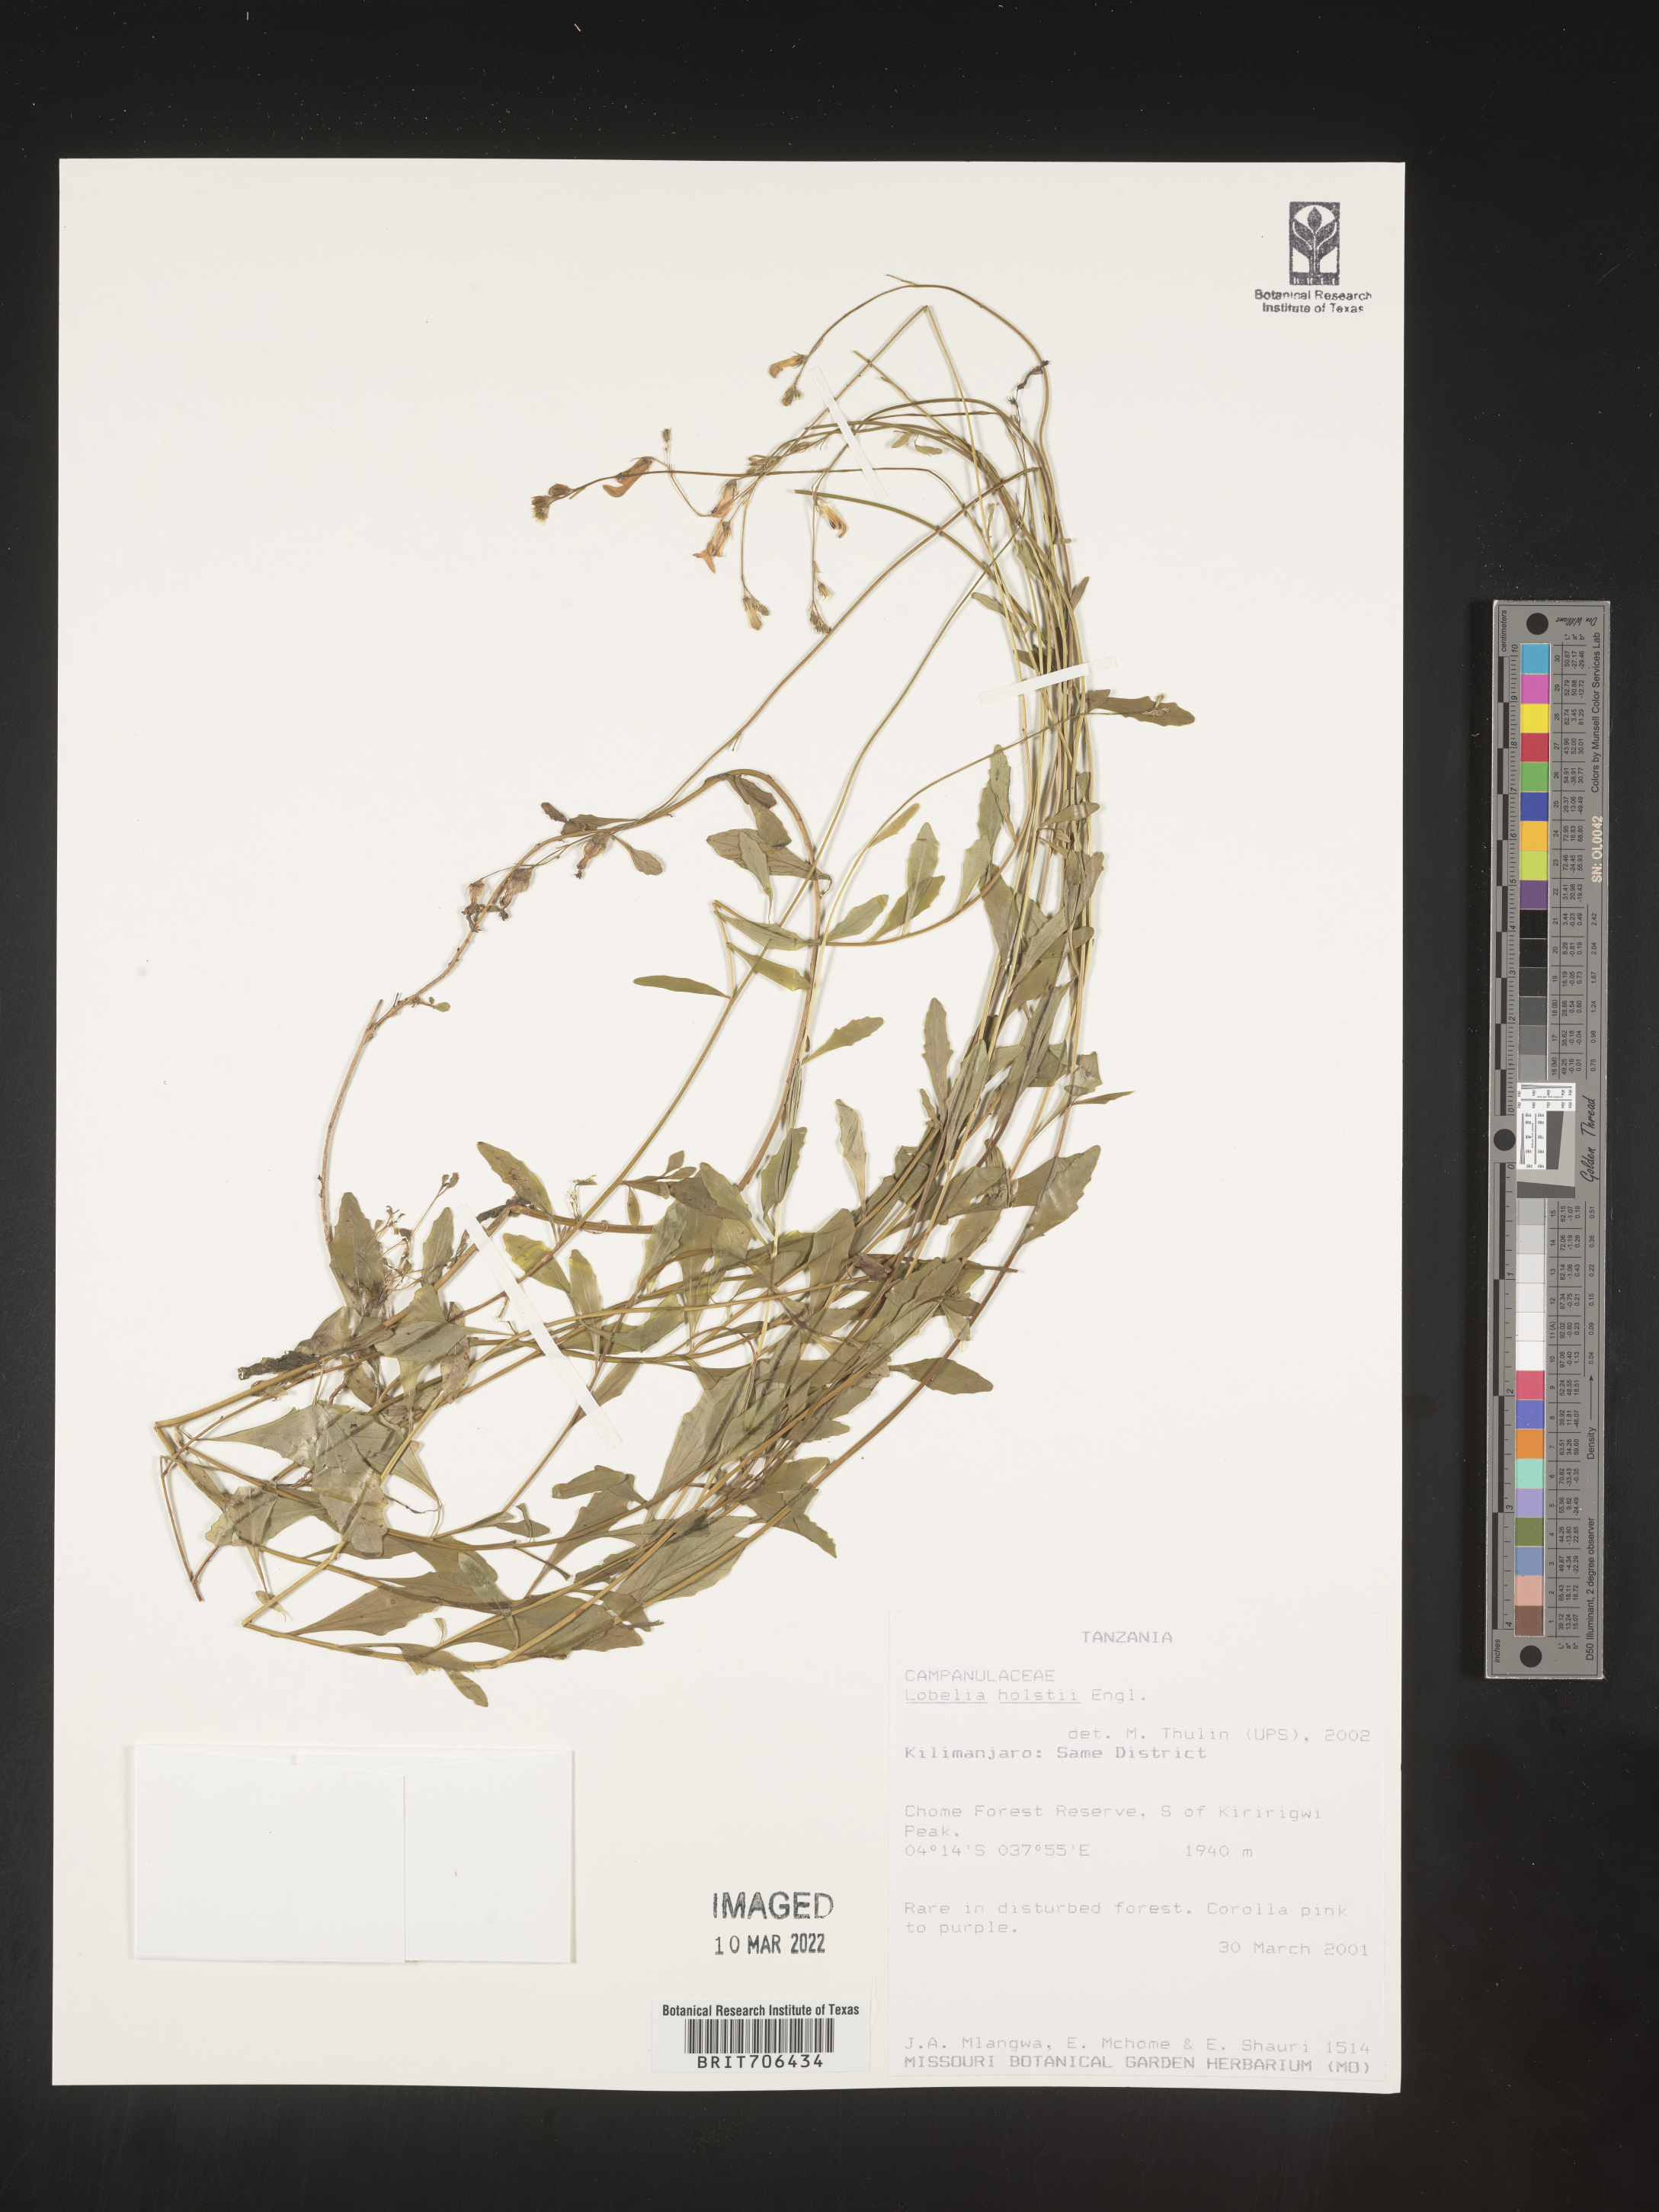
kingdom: Plantae
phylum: Tracheophyta
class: Magnoliopsida
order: Asterales
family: Campanulaceae
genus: Lobelia
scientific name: Lobelia
